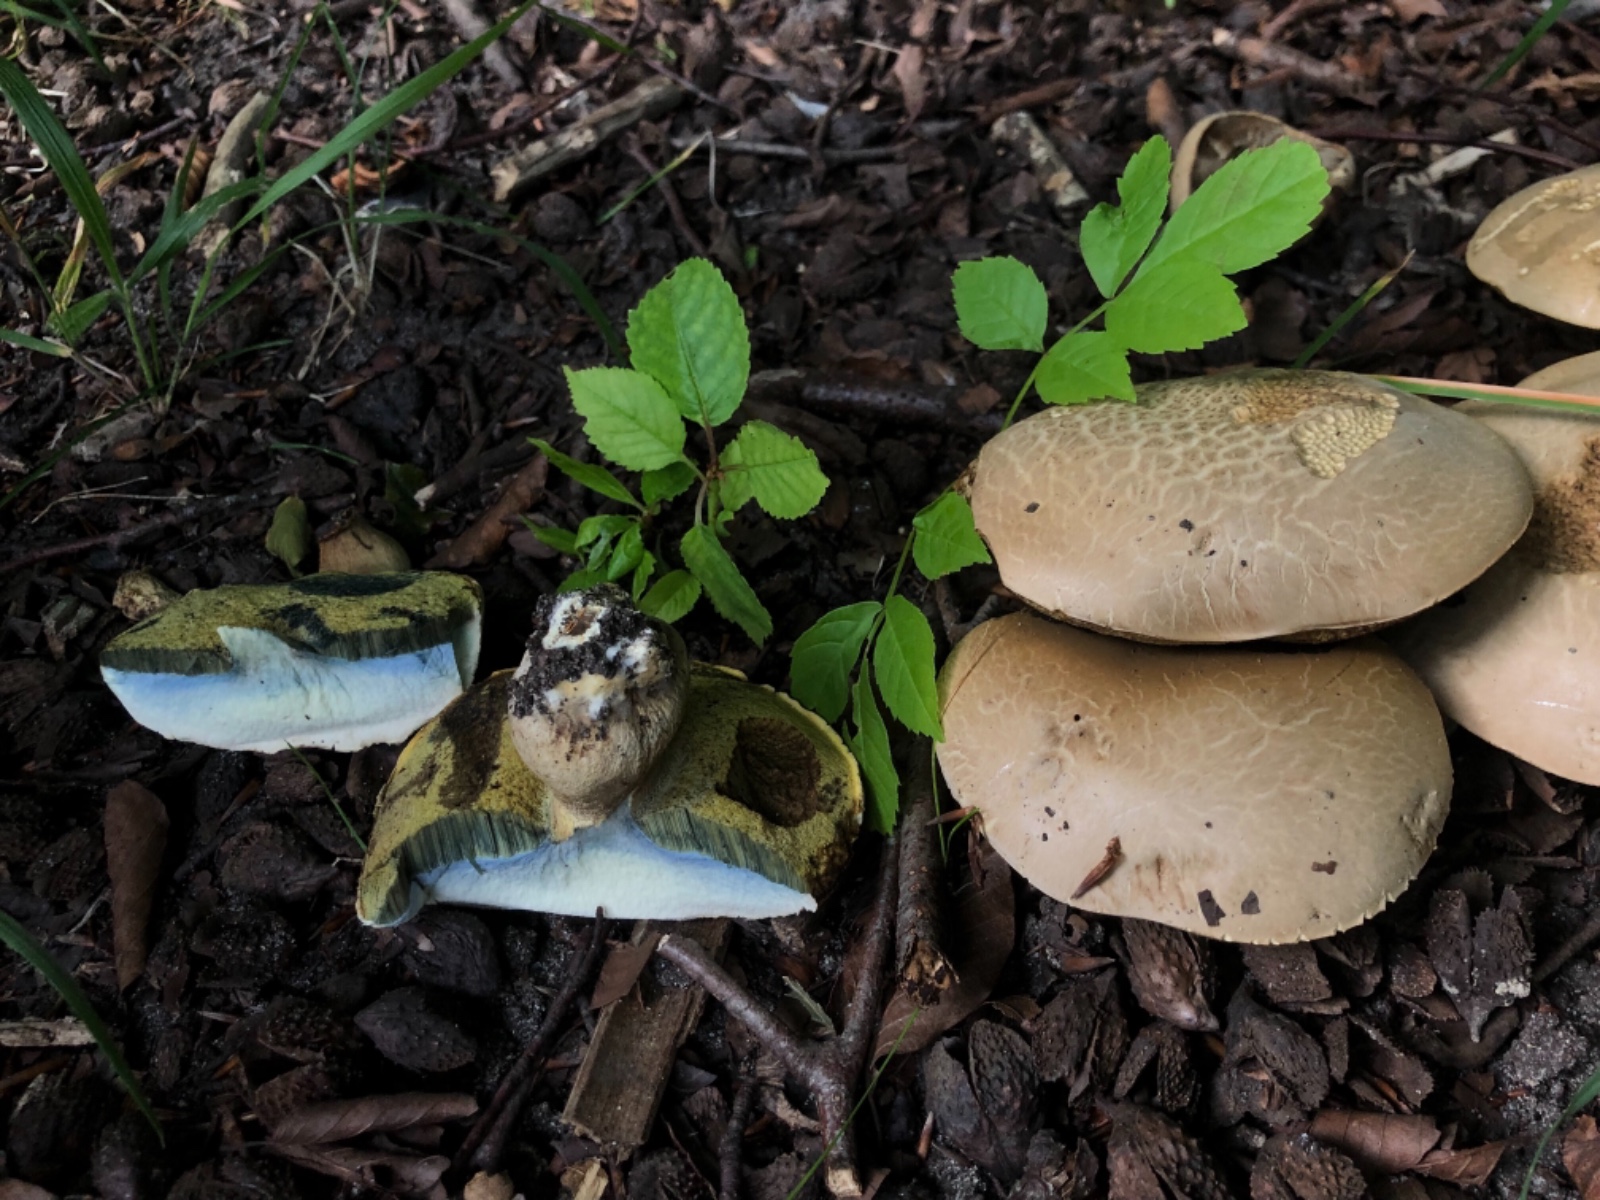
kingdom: Fungi
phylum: Basidiomycota
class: Agaricomycetes
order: Boletales
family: Boletaceae
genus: Caloboletus
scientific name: Caloboletus radicans
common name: rod-rørhat
